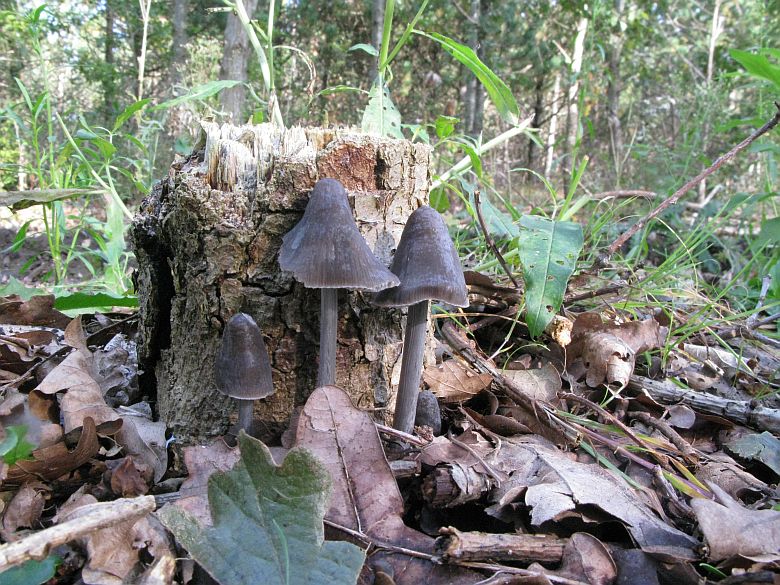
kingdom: Fungi
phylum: Basidiomycota
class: Agaricomycetes
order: Agaricales
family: Mycenaceae
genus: Mycena
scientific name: Mycena polygramma
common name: mangestribet huesvamp
